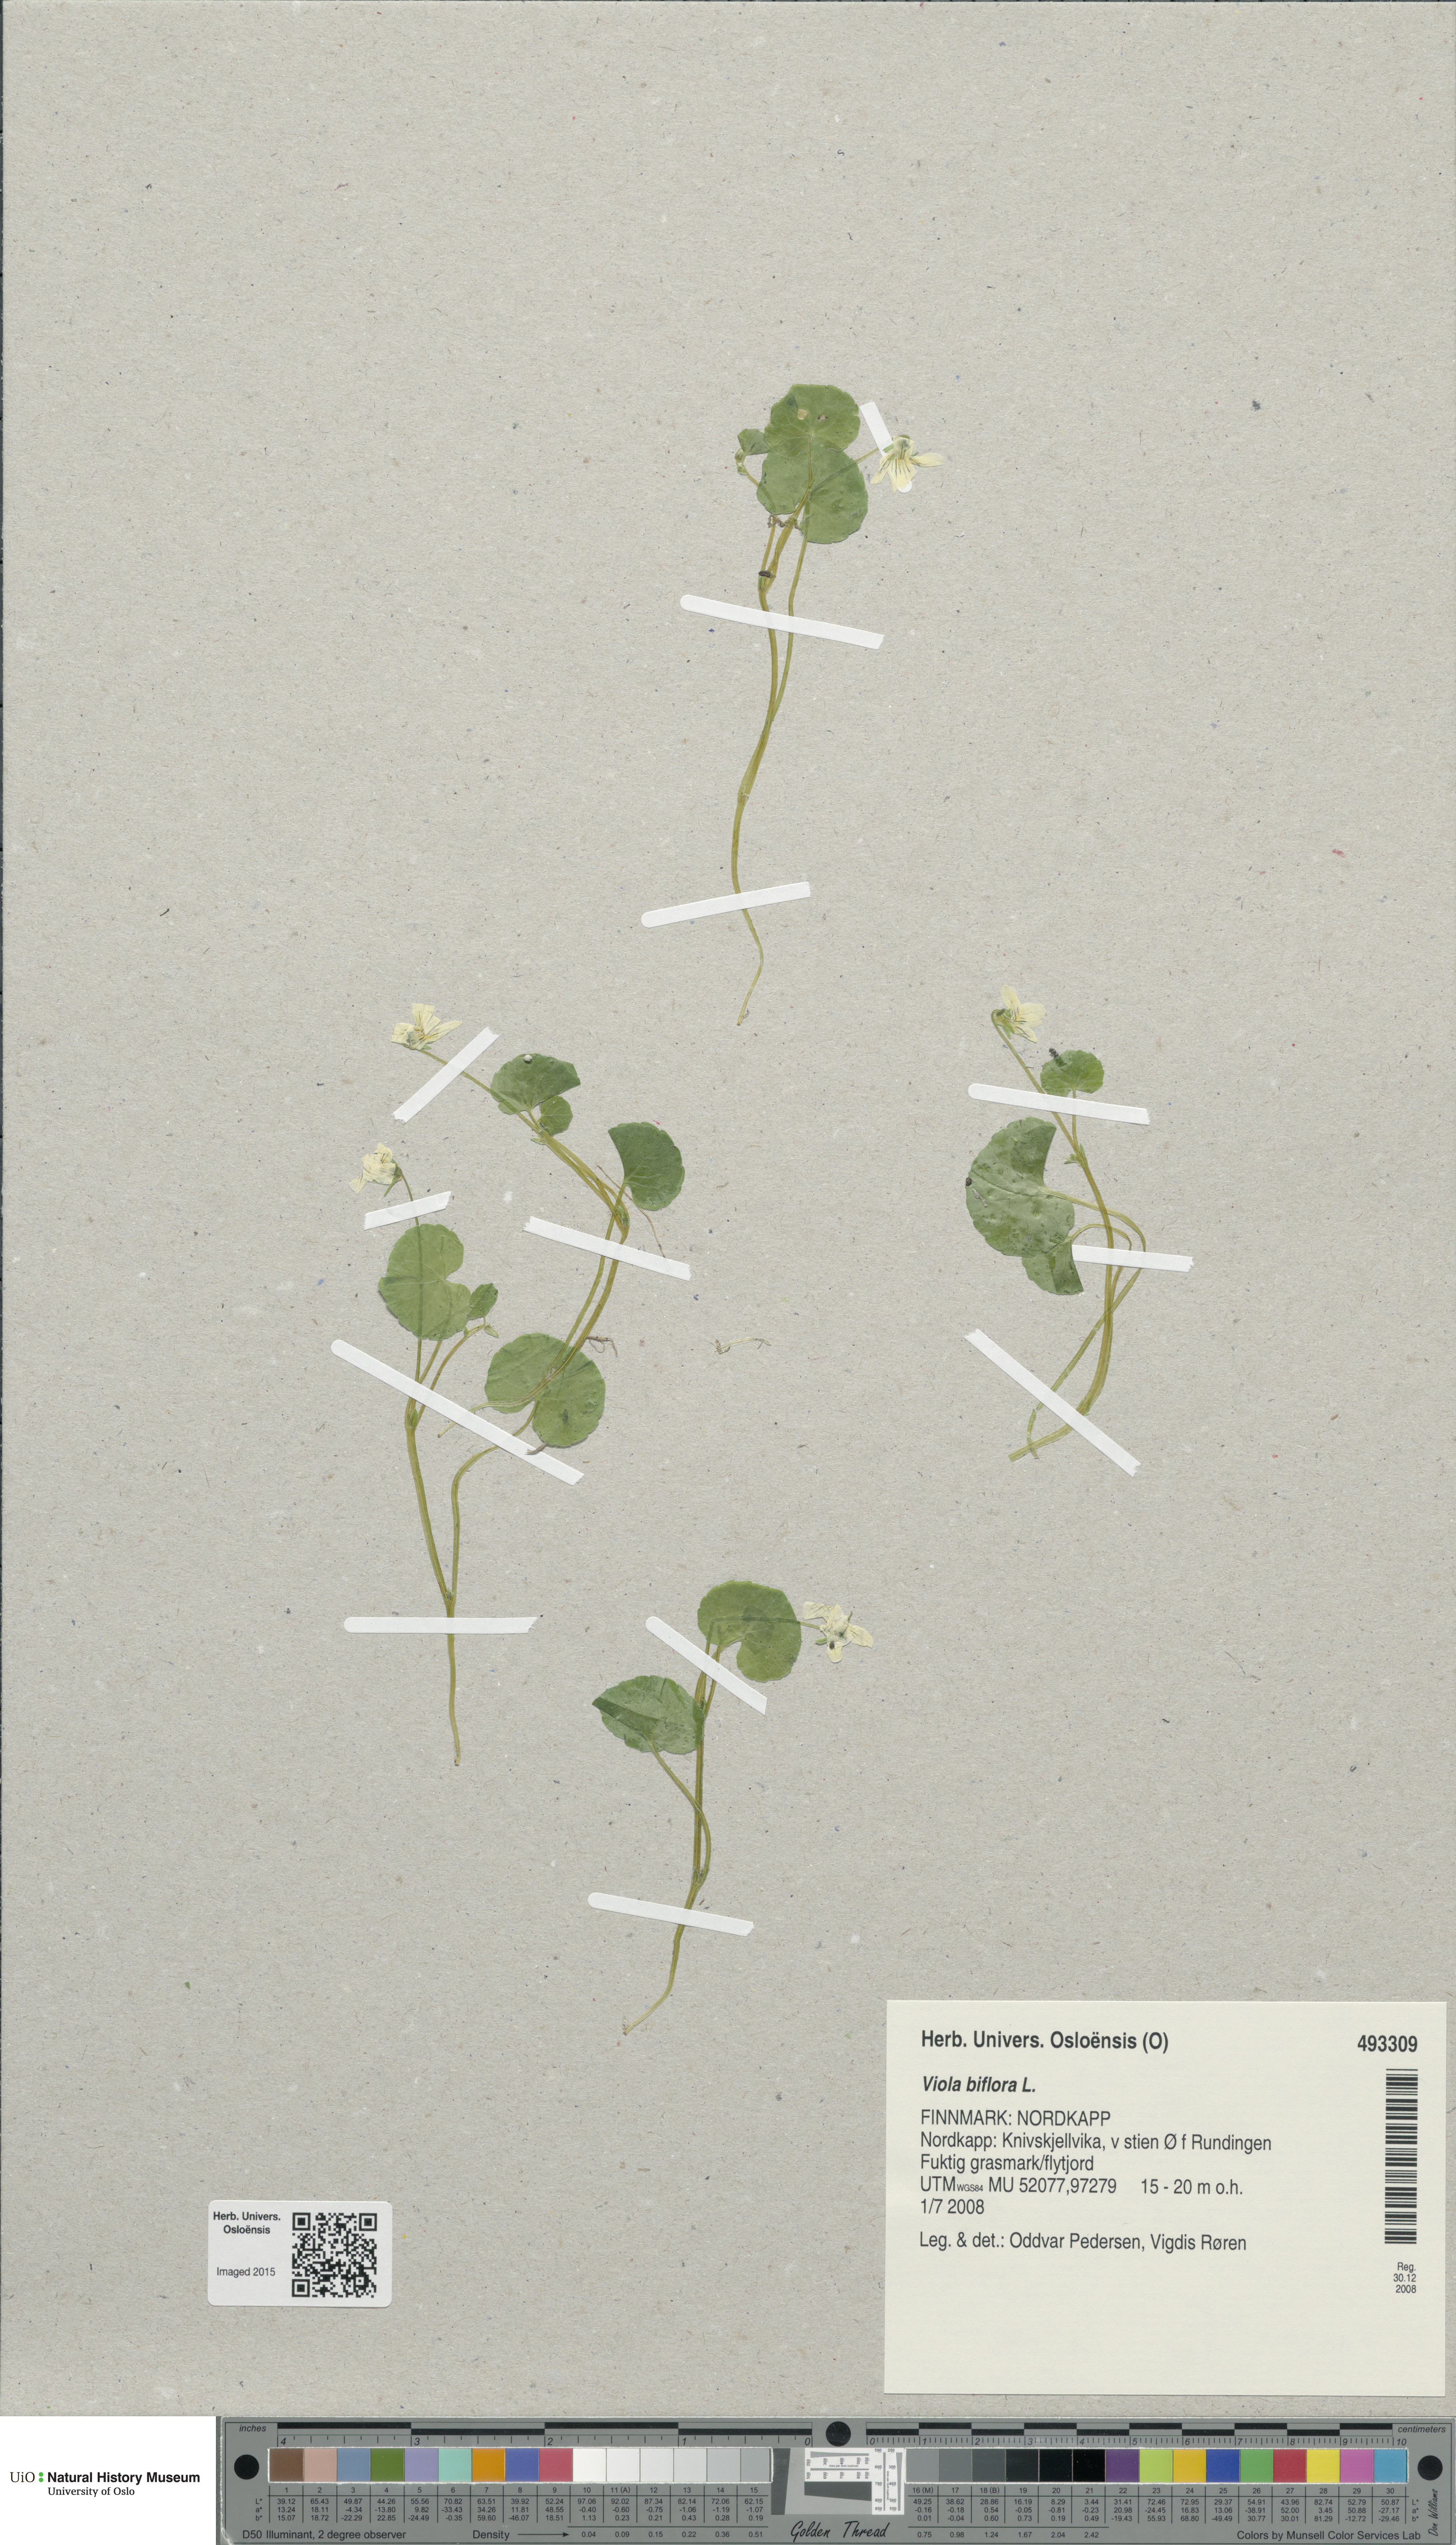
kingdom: Plantae
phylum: Tracheophyta
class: Magnoliopsida
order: Malpighiales
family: Violaceae
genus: Viola
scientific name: Viola biflora
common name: Alpine yellow violet
